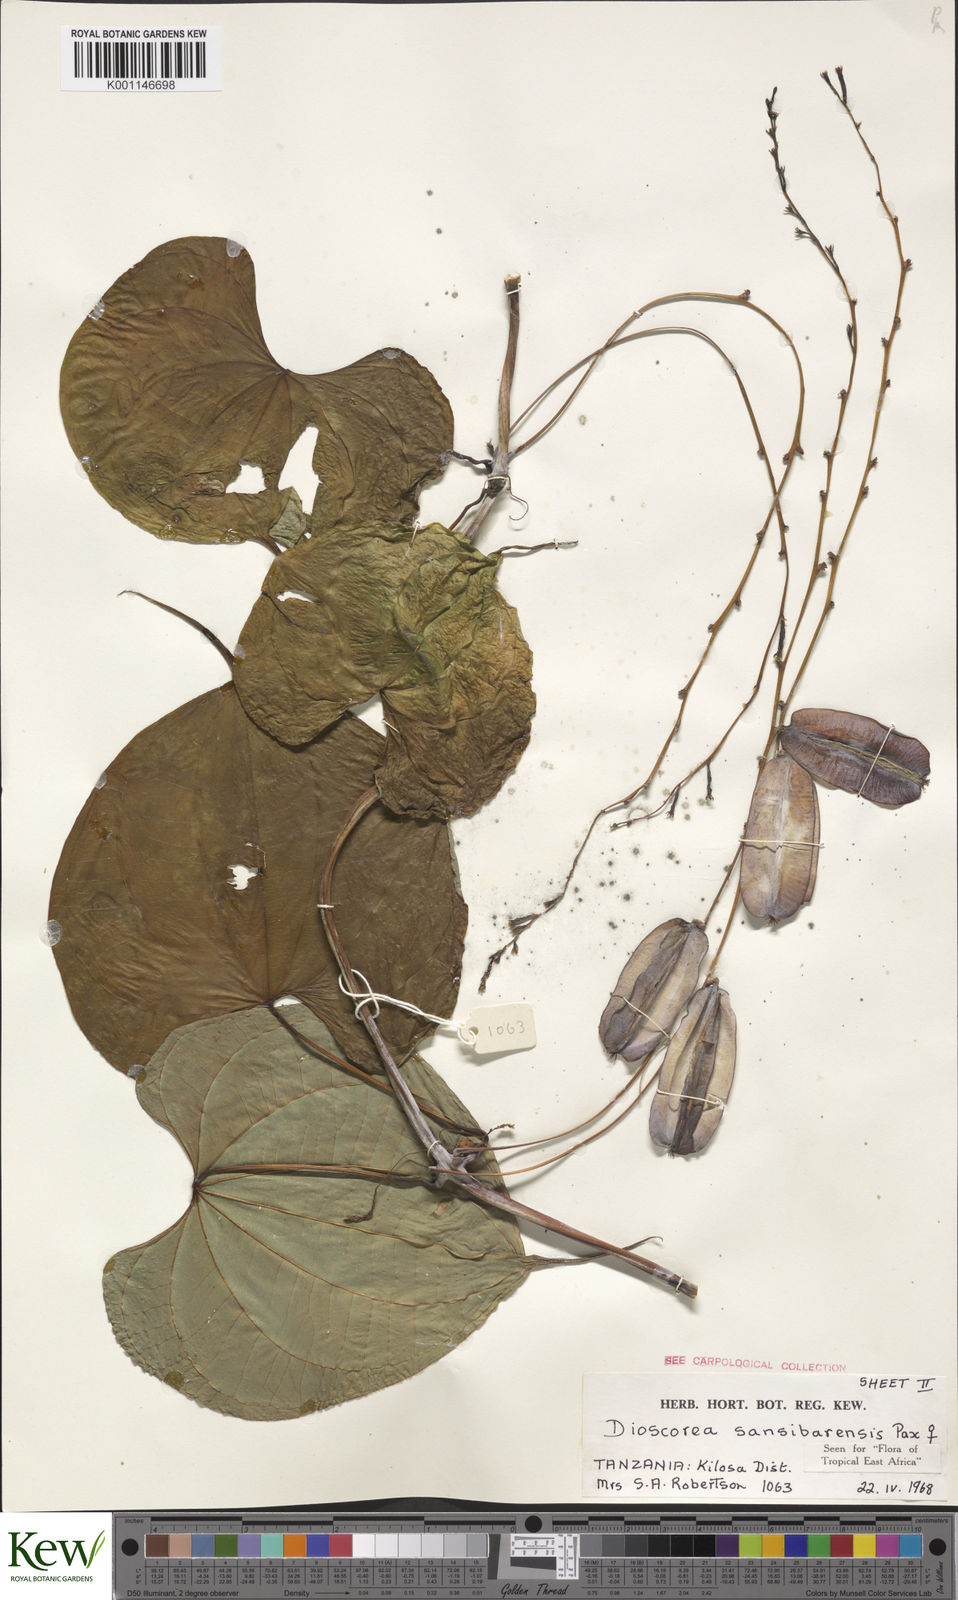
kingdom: Plantae
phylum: Tracheophyta
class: Liliopsida
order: Dioscoreales
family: Dioscoreaceae
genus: Dioscorea
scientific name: Dioscorea sansibarensis
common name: Zanzibar yam
